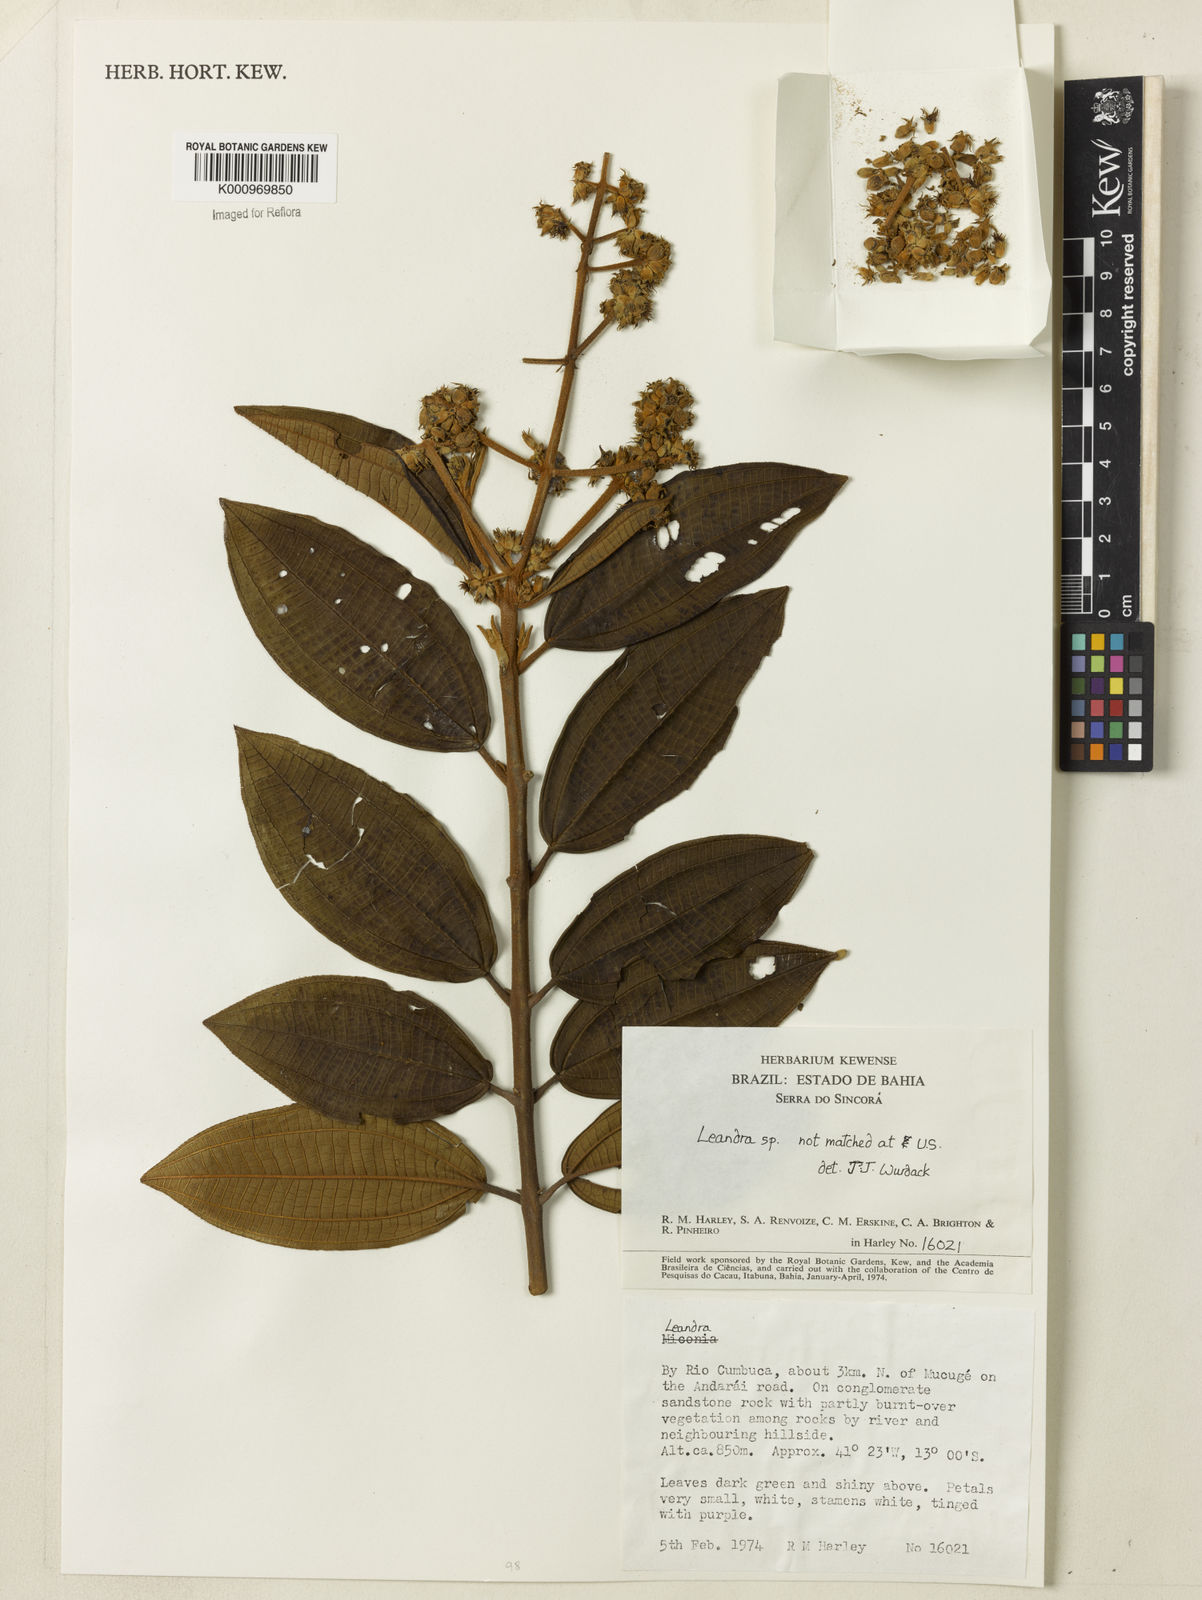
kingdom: Plantae
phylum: Tracheophyta
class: Magnoliopsida
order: Myrtales
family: Melastomataceae
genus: Miconia
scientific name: Miconia
